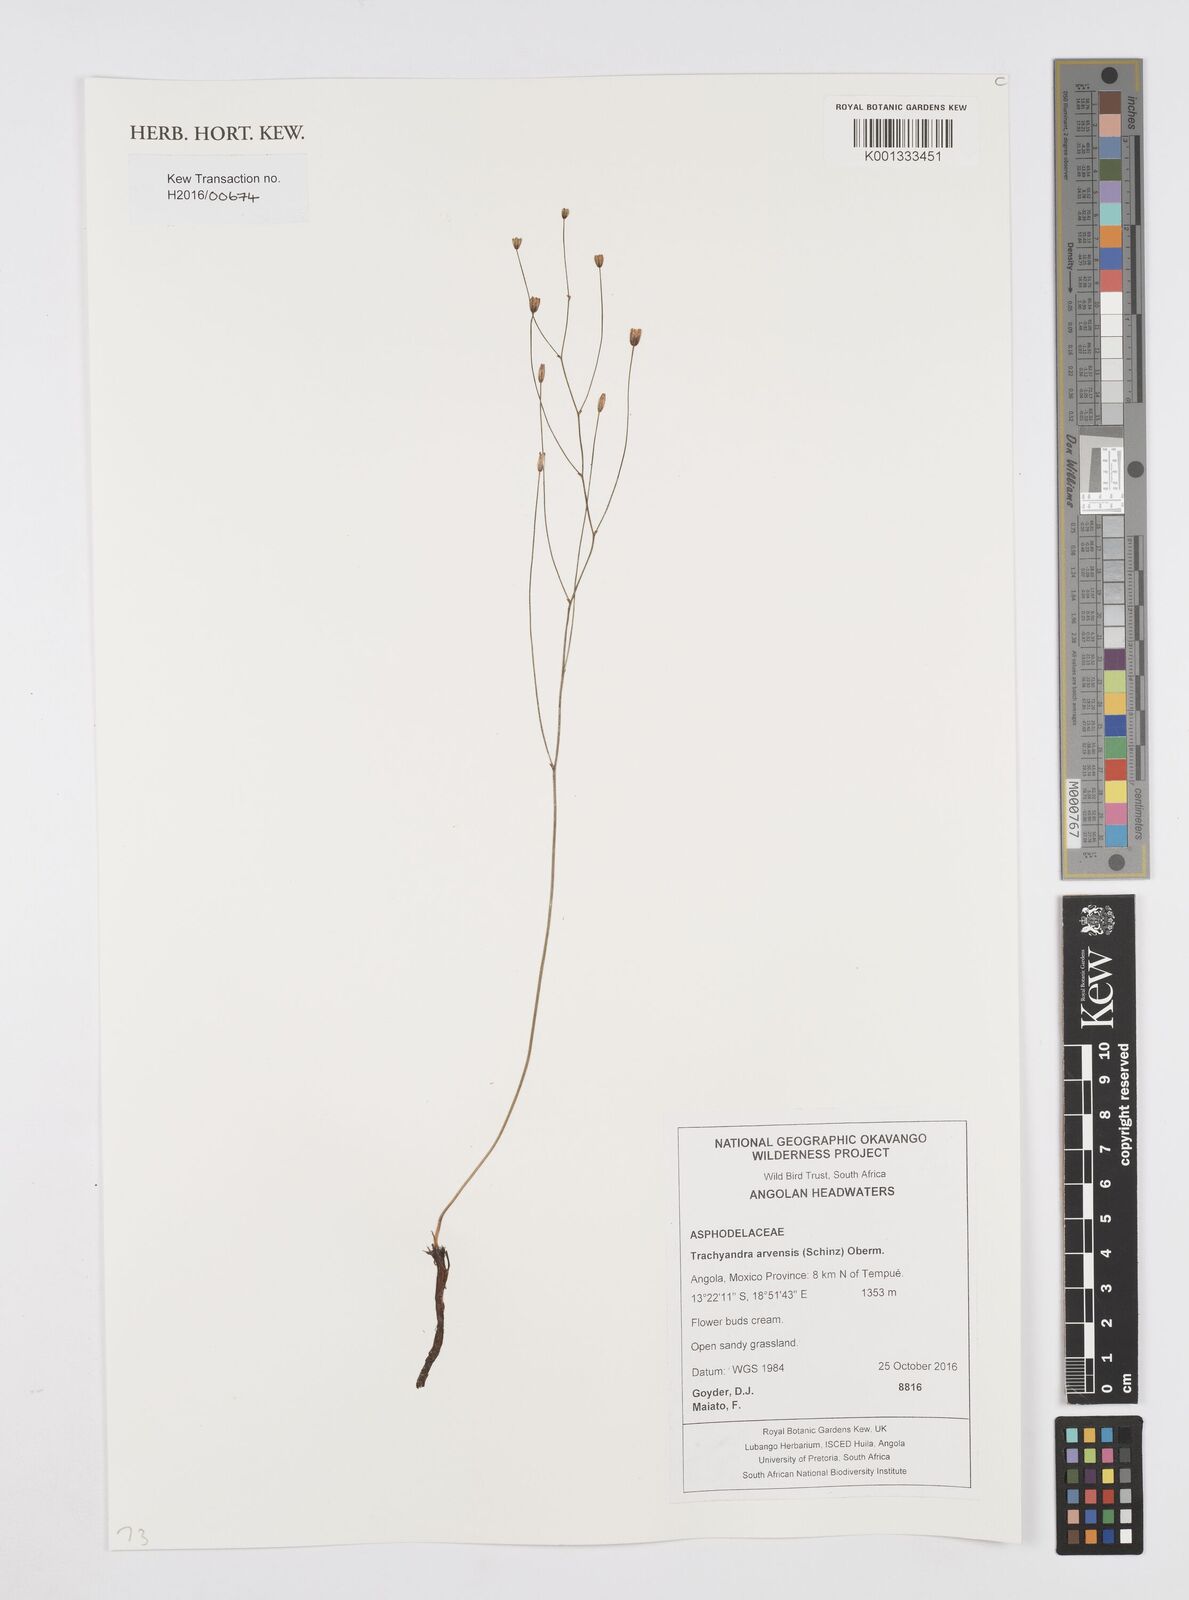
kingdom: Plantae
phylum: Tracheophyta
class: Liliopsida
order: Asparagales
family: Asphodelaceae
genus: Trachyandra
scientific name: Trachyandra arvensis
